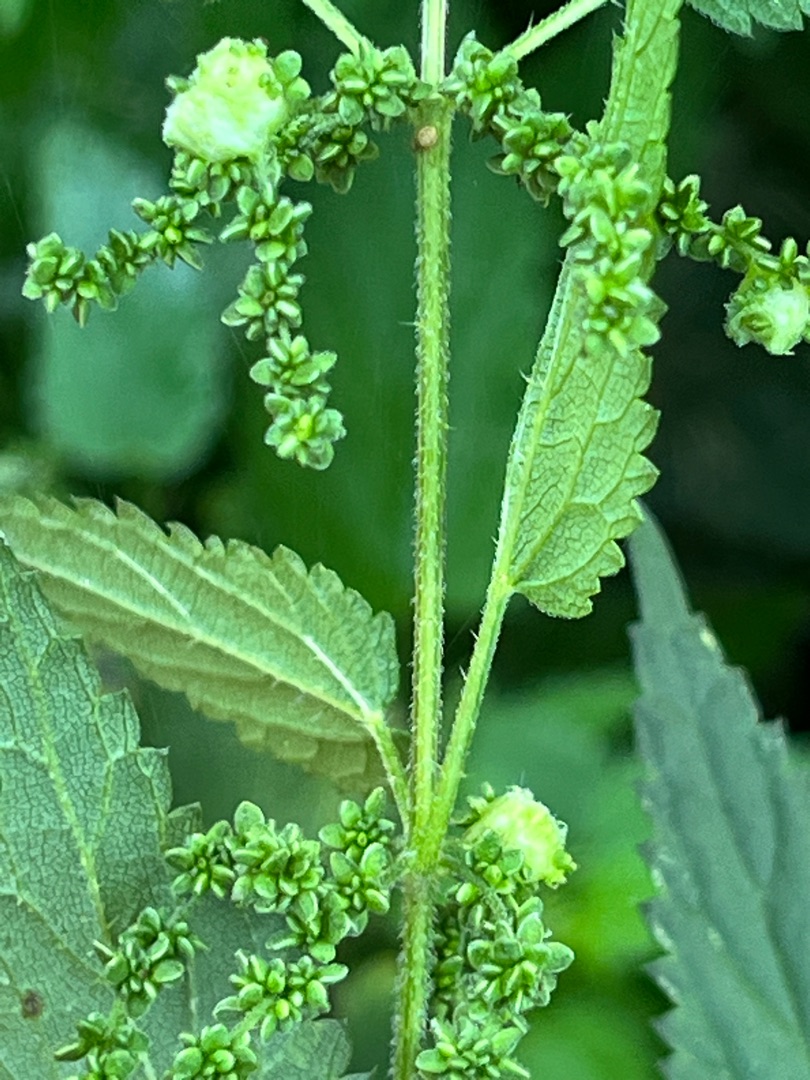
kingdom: Animalia
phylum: Arthropoda
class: Insecta
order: Diptera
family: Cecidomyiidae
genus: Dasineura
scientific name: Dasineura urticae
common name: Nældepunggalmyg
